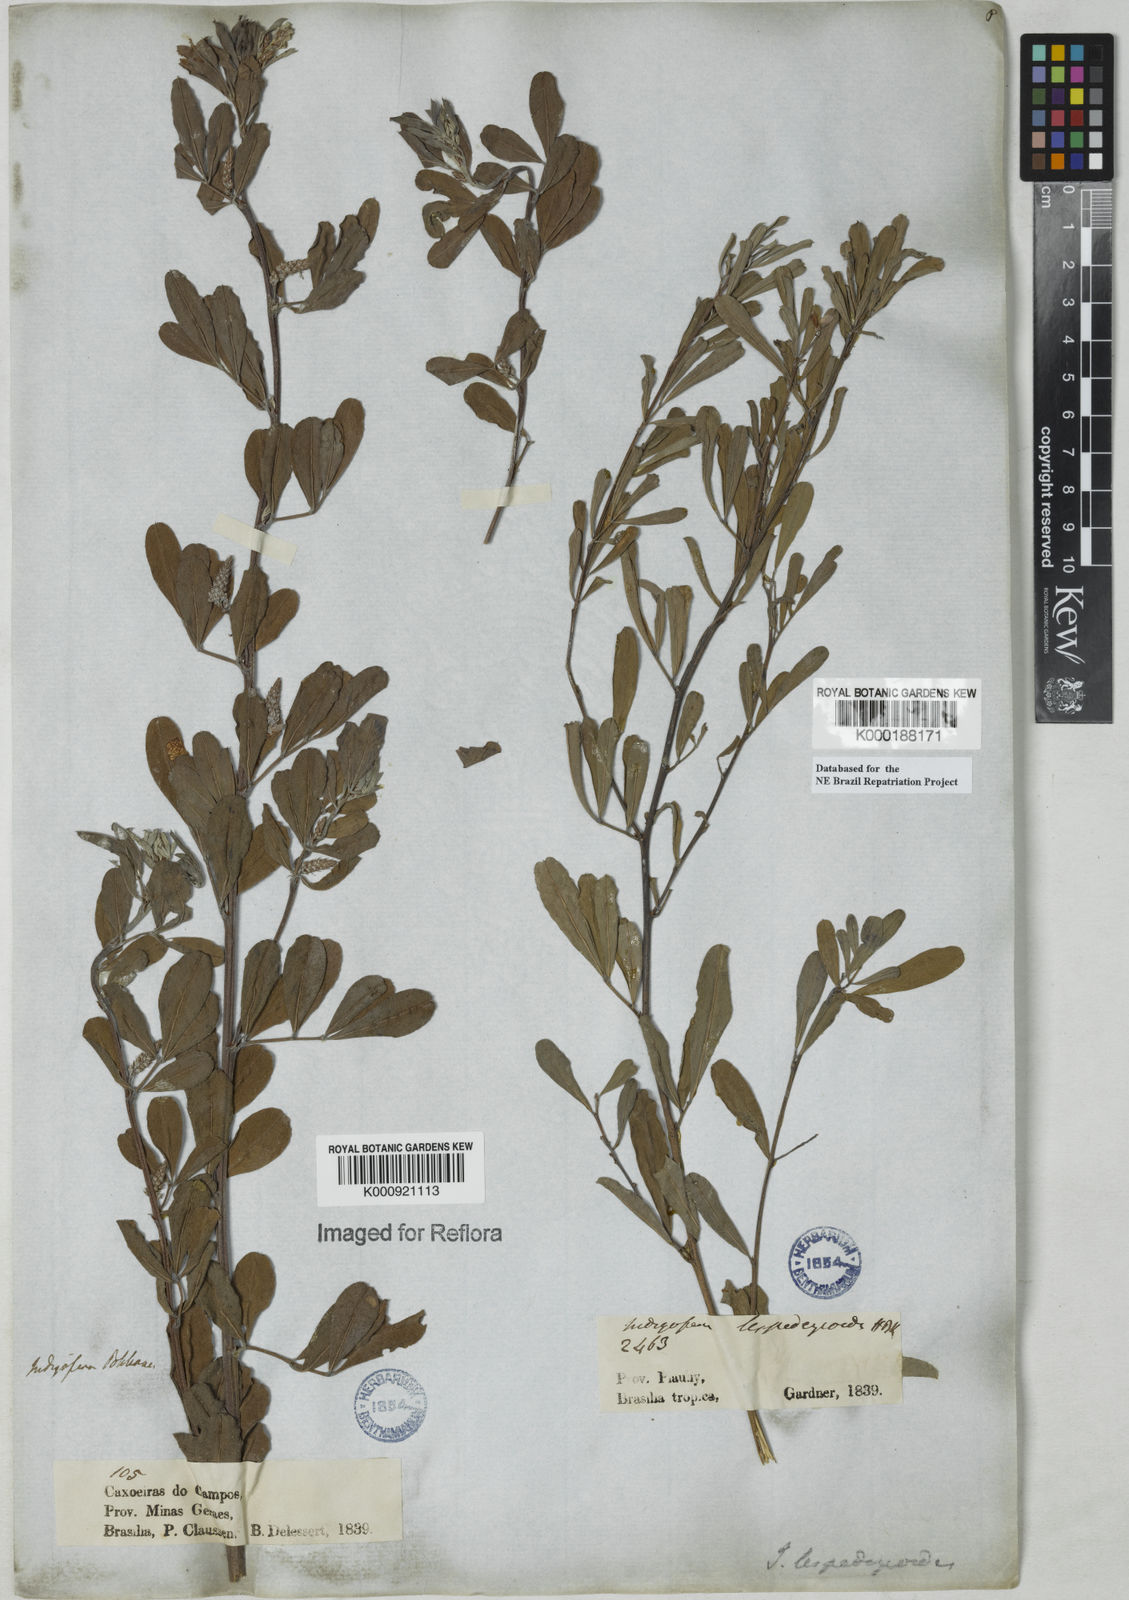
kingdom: Plantae
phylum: Tracheophyta
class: Magnoliopsida
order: Fabales
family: Fabaceae
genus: Indigofera
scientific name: Indigofera lespedezioides
